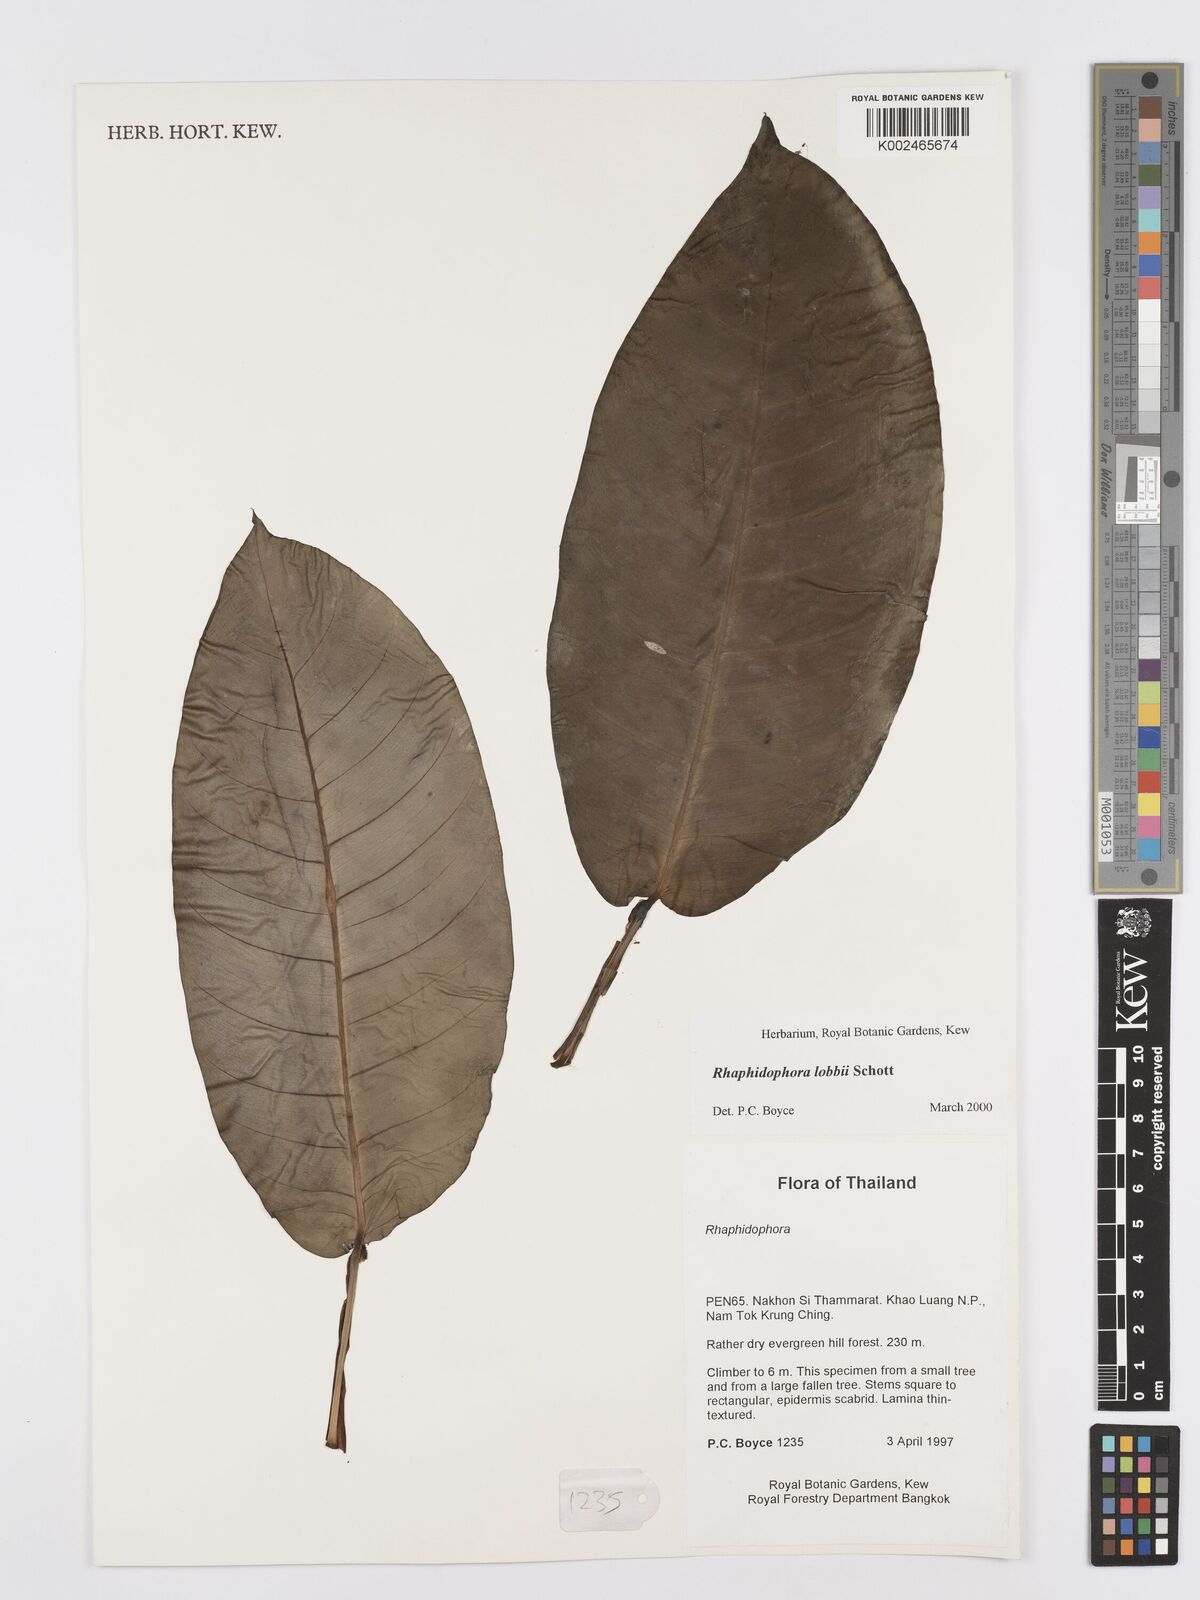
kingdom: Plantae
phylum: Tracheophyta
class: Liliopsida
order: Alismatales
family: Araceae
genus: Rhaphidophora
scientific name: Rhaphidophora lobbii
